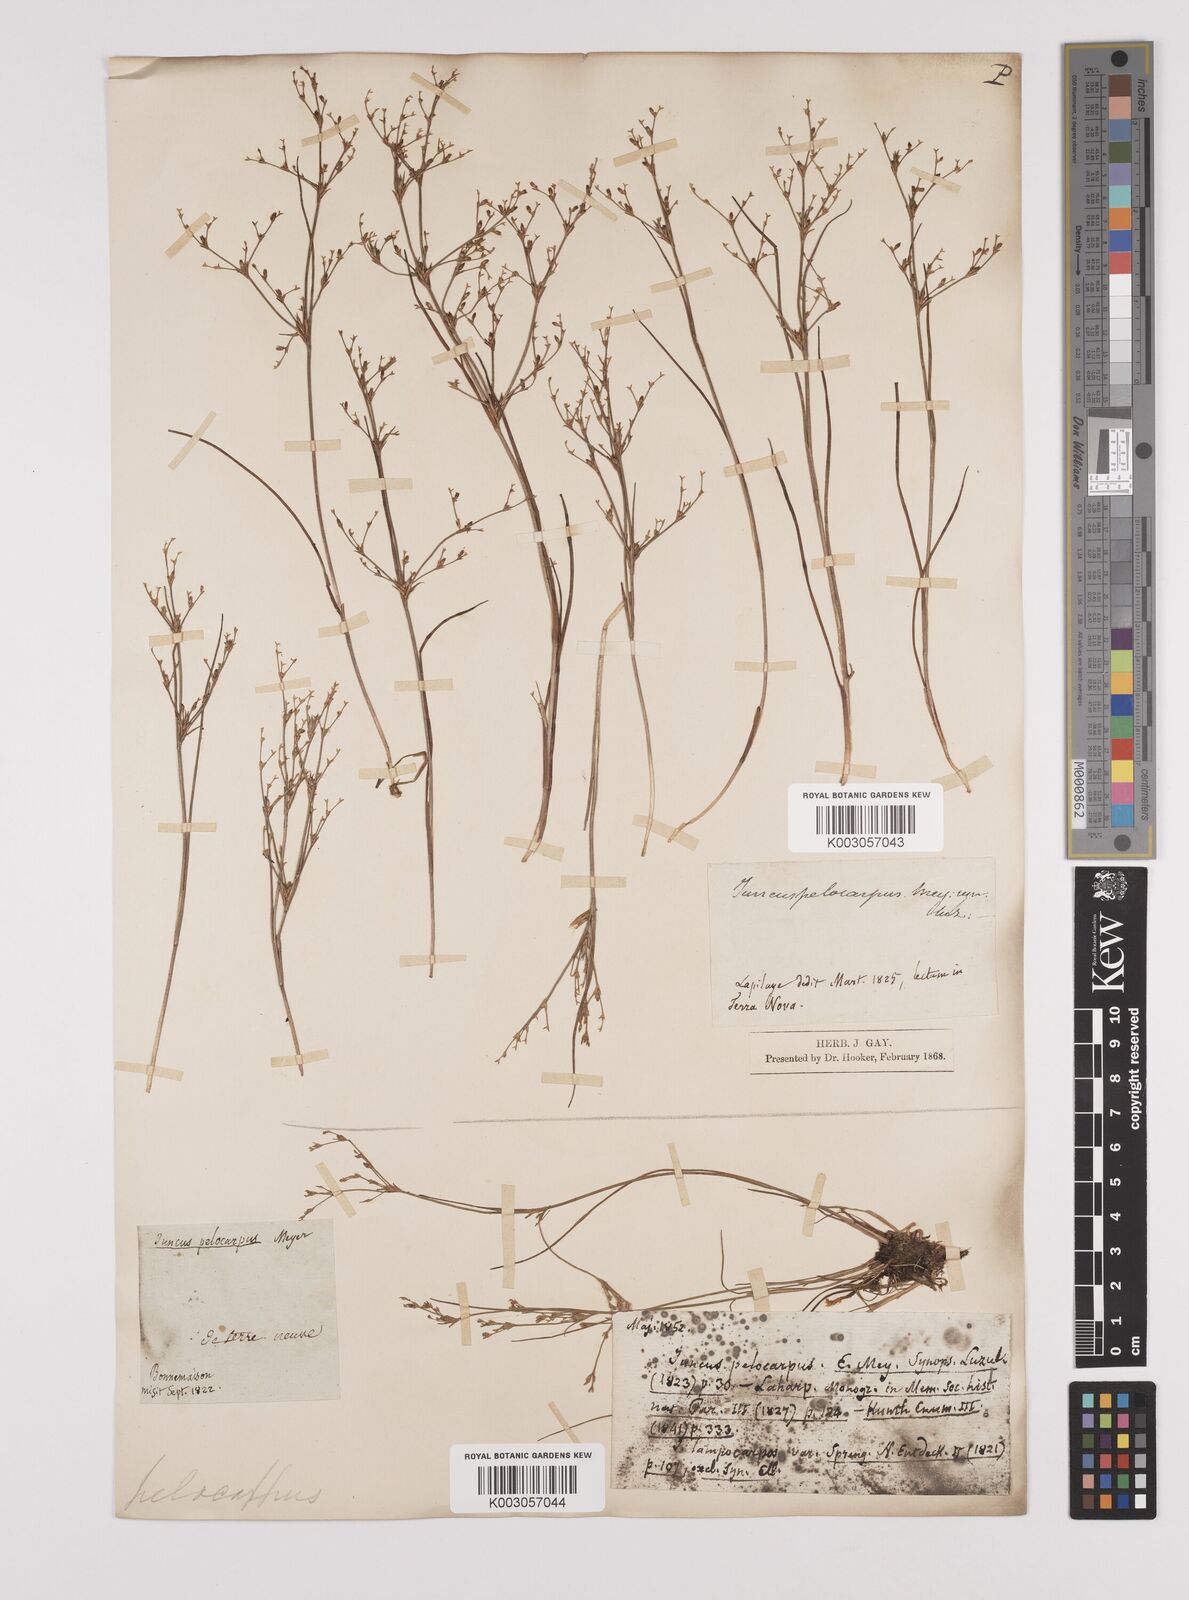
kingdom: Plantae
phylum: Tracheophyta
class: Liliopsida
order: Poales
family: Juncaceae
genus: Juncus
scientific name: Juncus pelocarpus
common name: Brown-fruited rush
